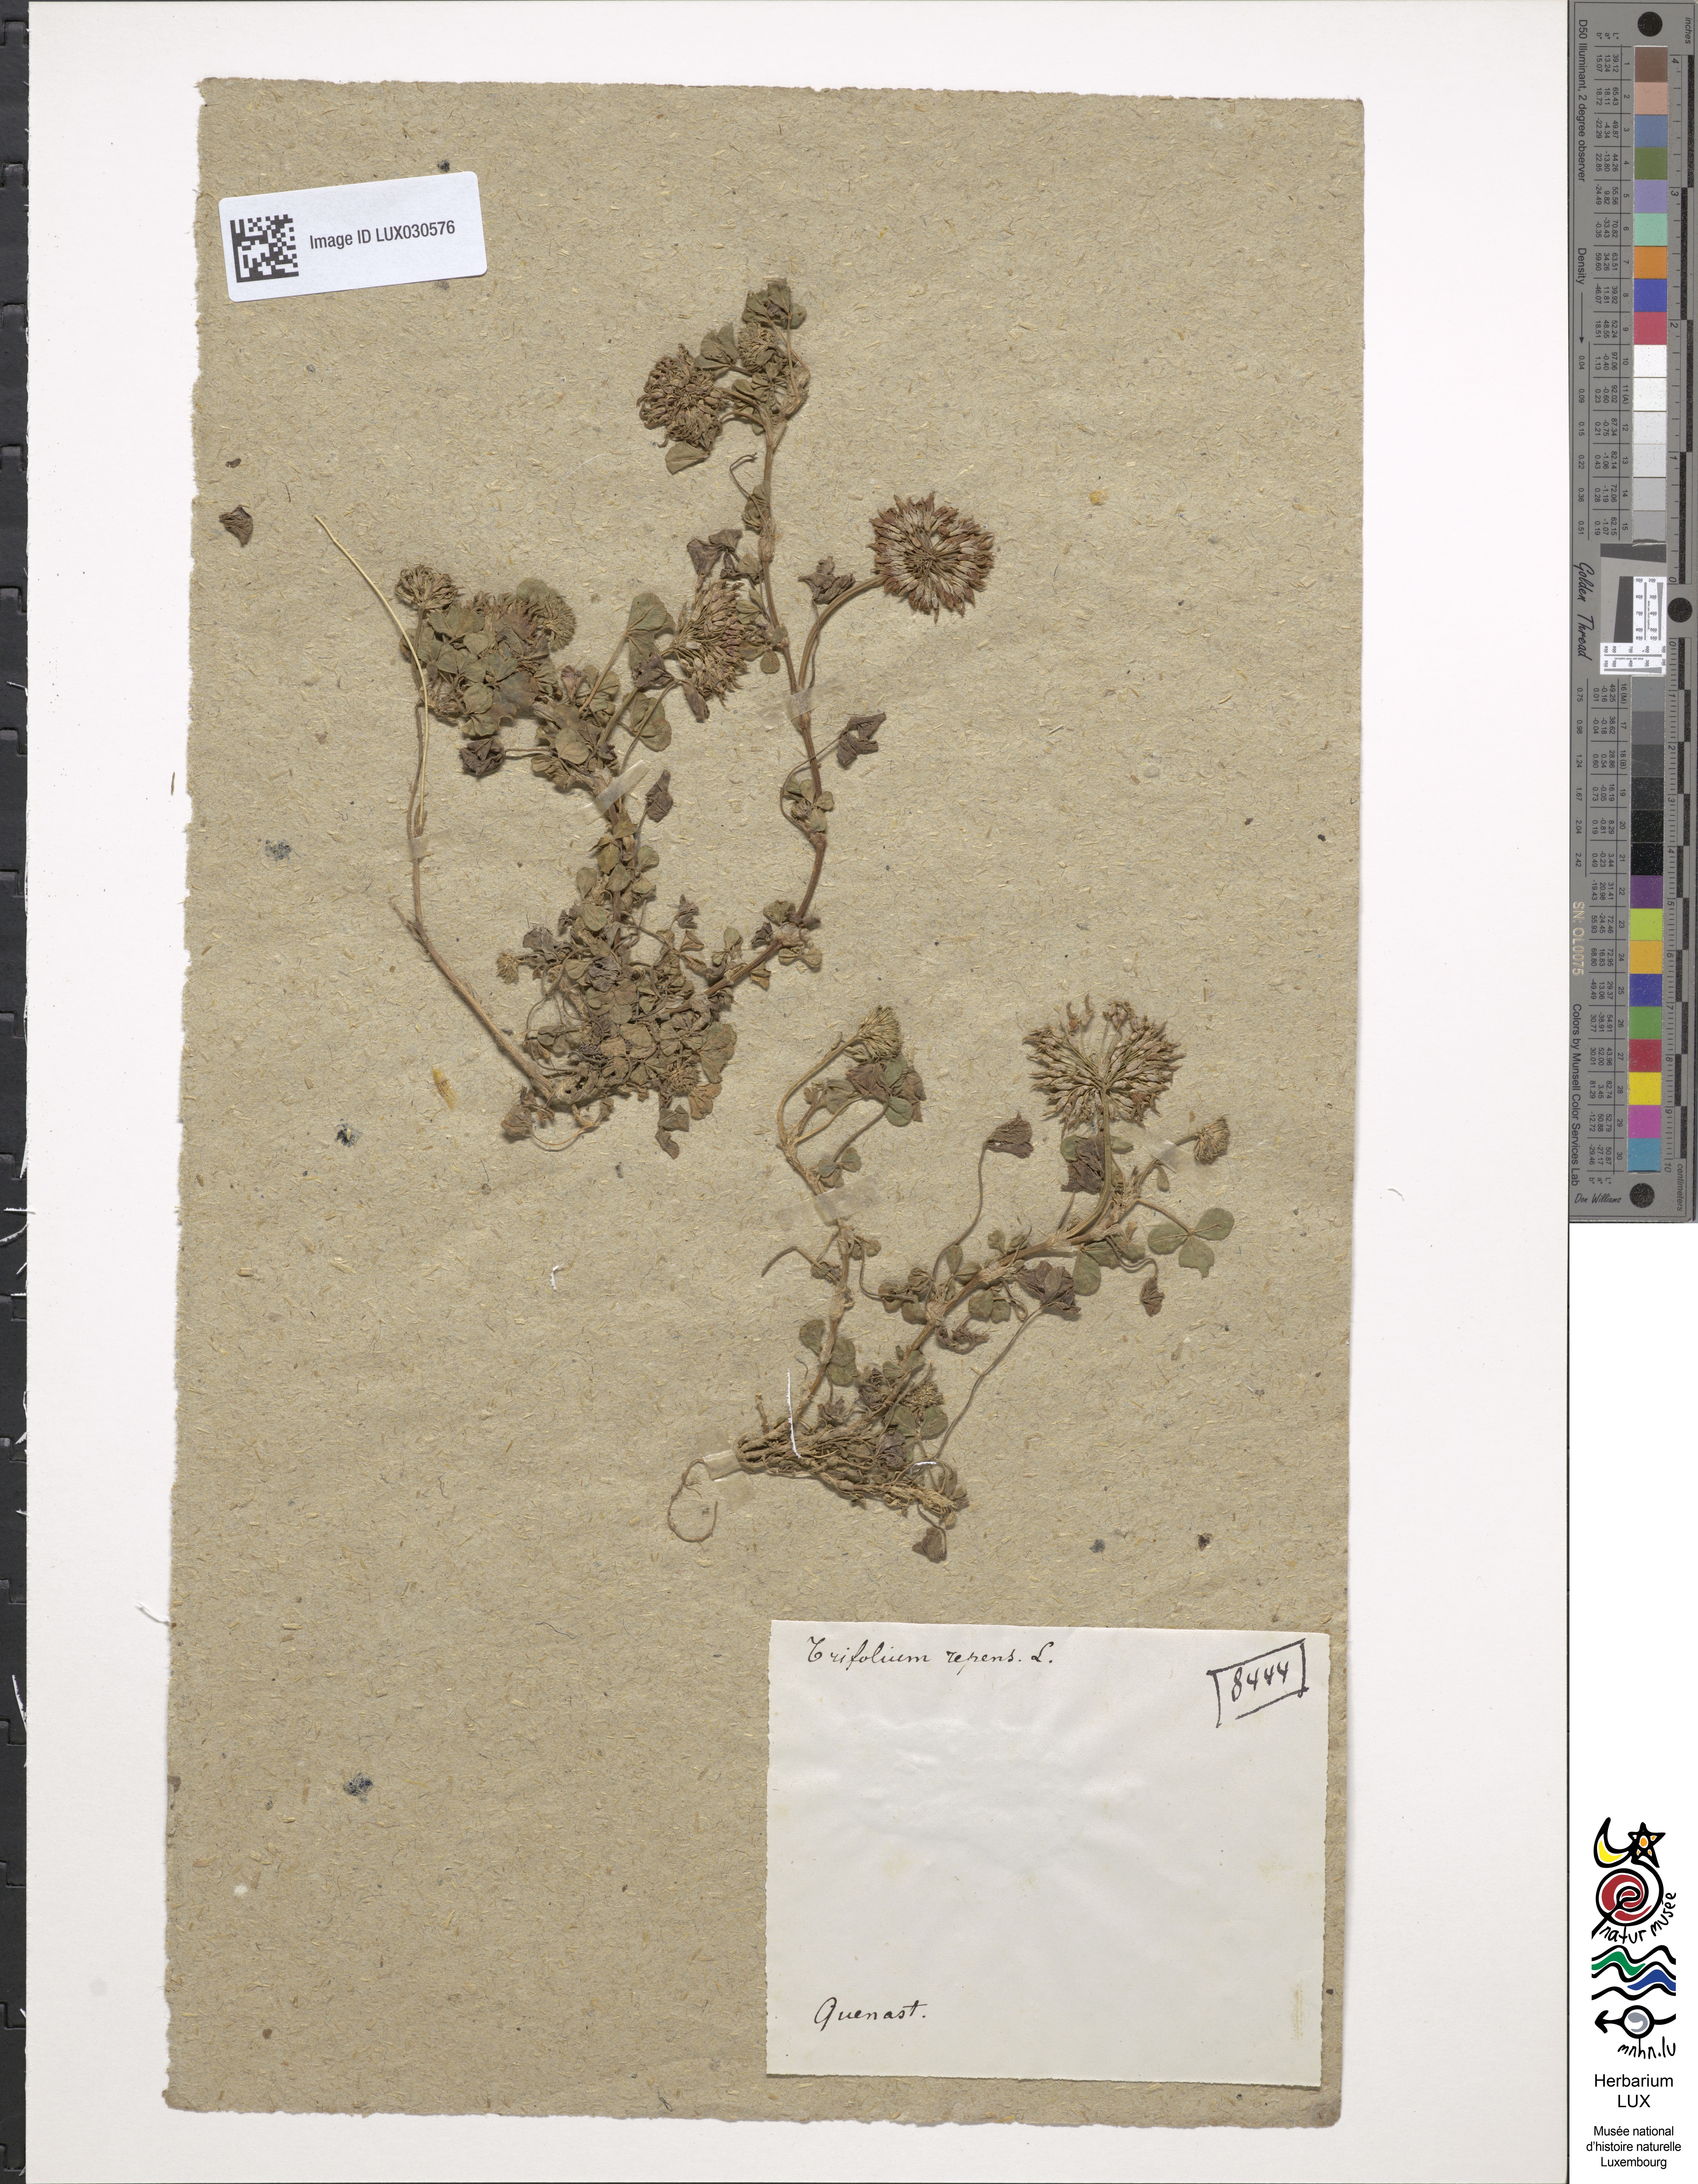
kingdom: Plantae
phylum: Tracheophyta
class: Magnoliopsida
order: Fabales
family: Fabaceae
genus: Trifolium
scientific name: Trifolium repens
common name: White clover
